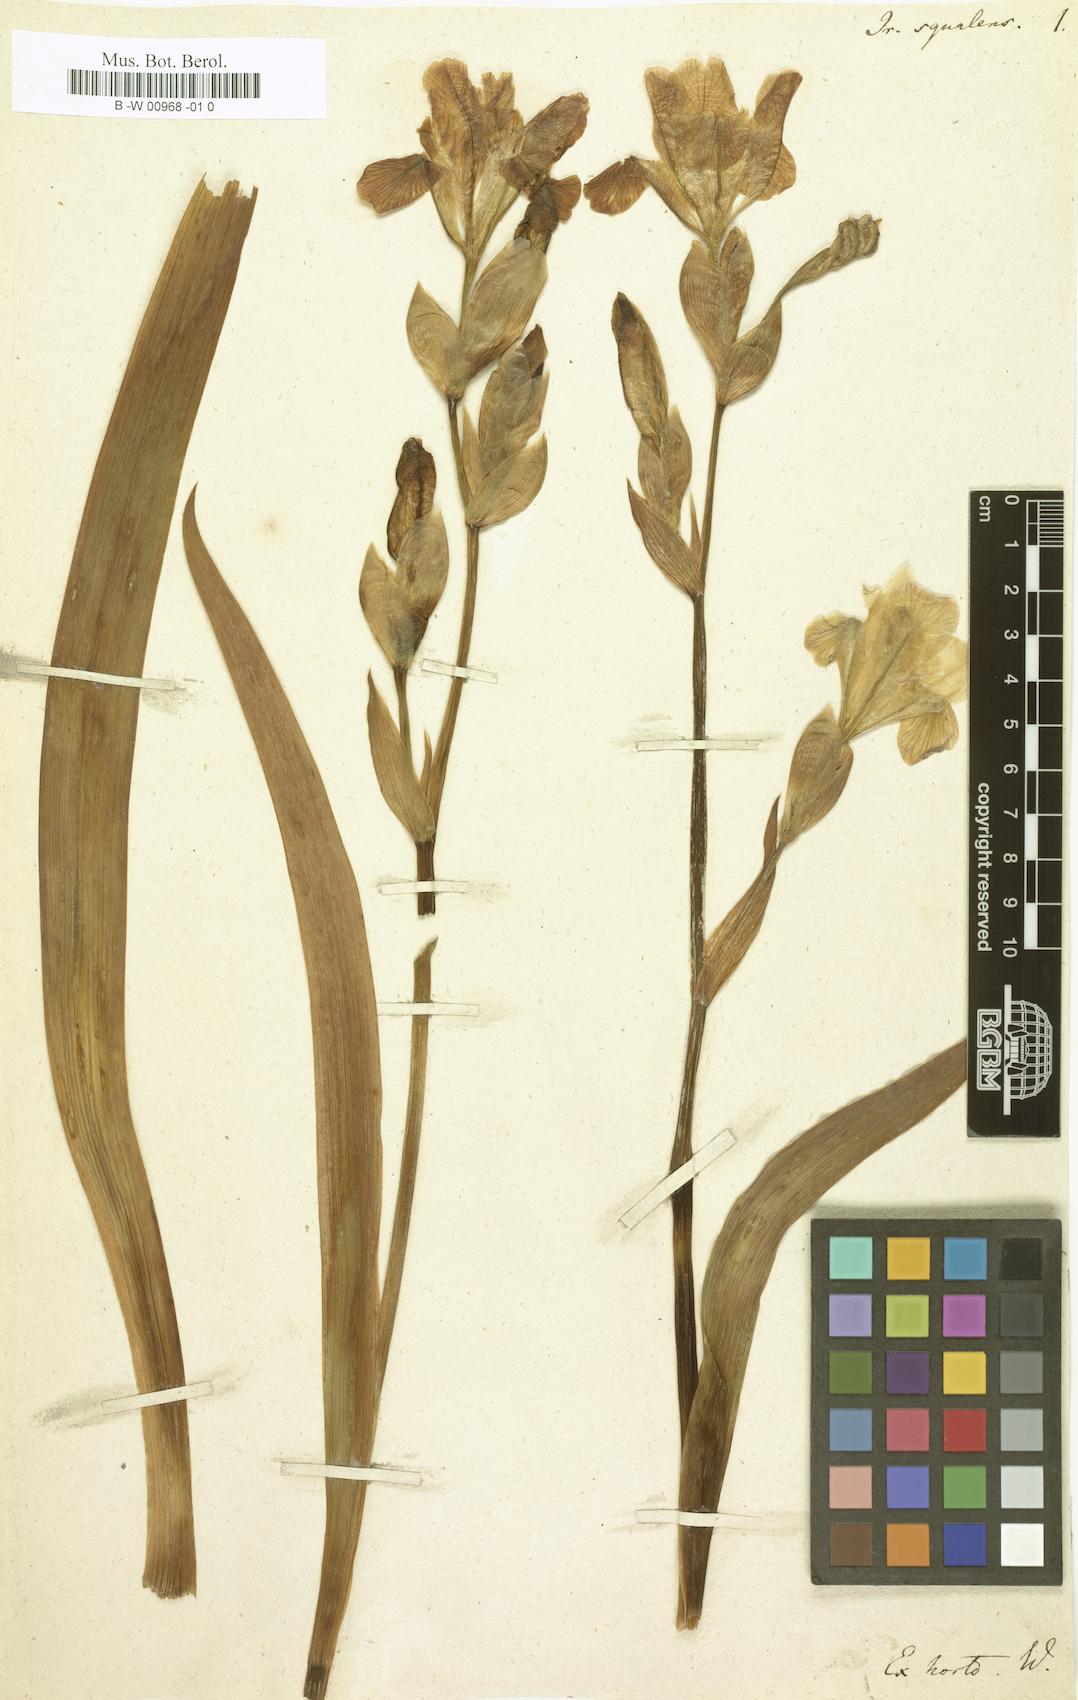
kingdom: Plantae
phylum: Tracheophyta
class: Liliopsida
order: Asparagales
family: Iridaceae
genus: Iris
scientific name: Iris germanica
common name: German iris
